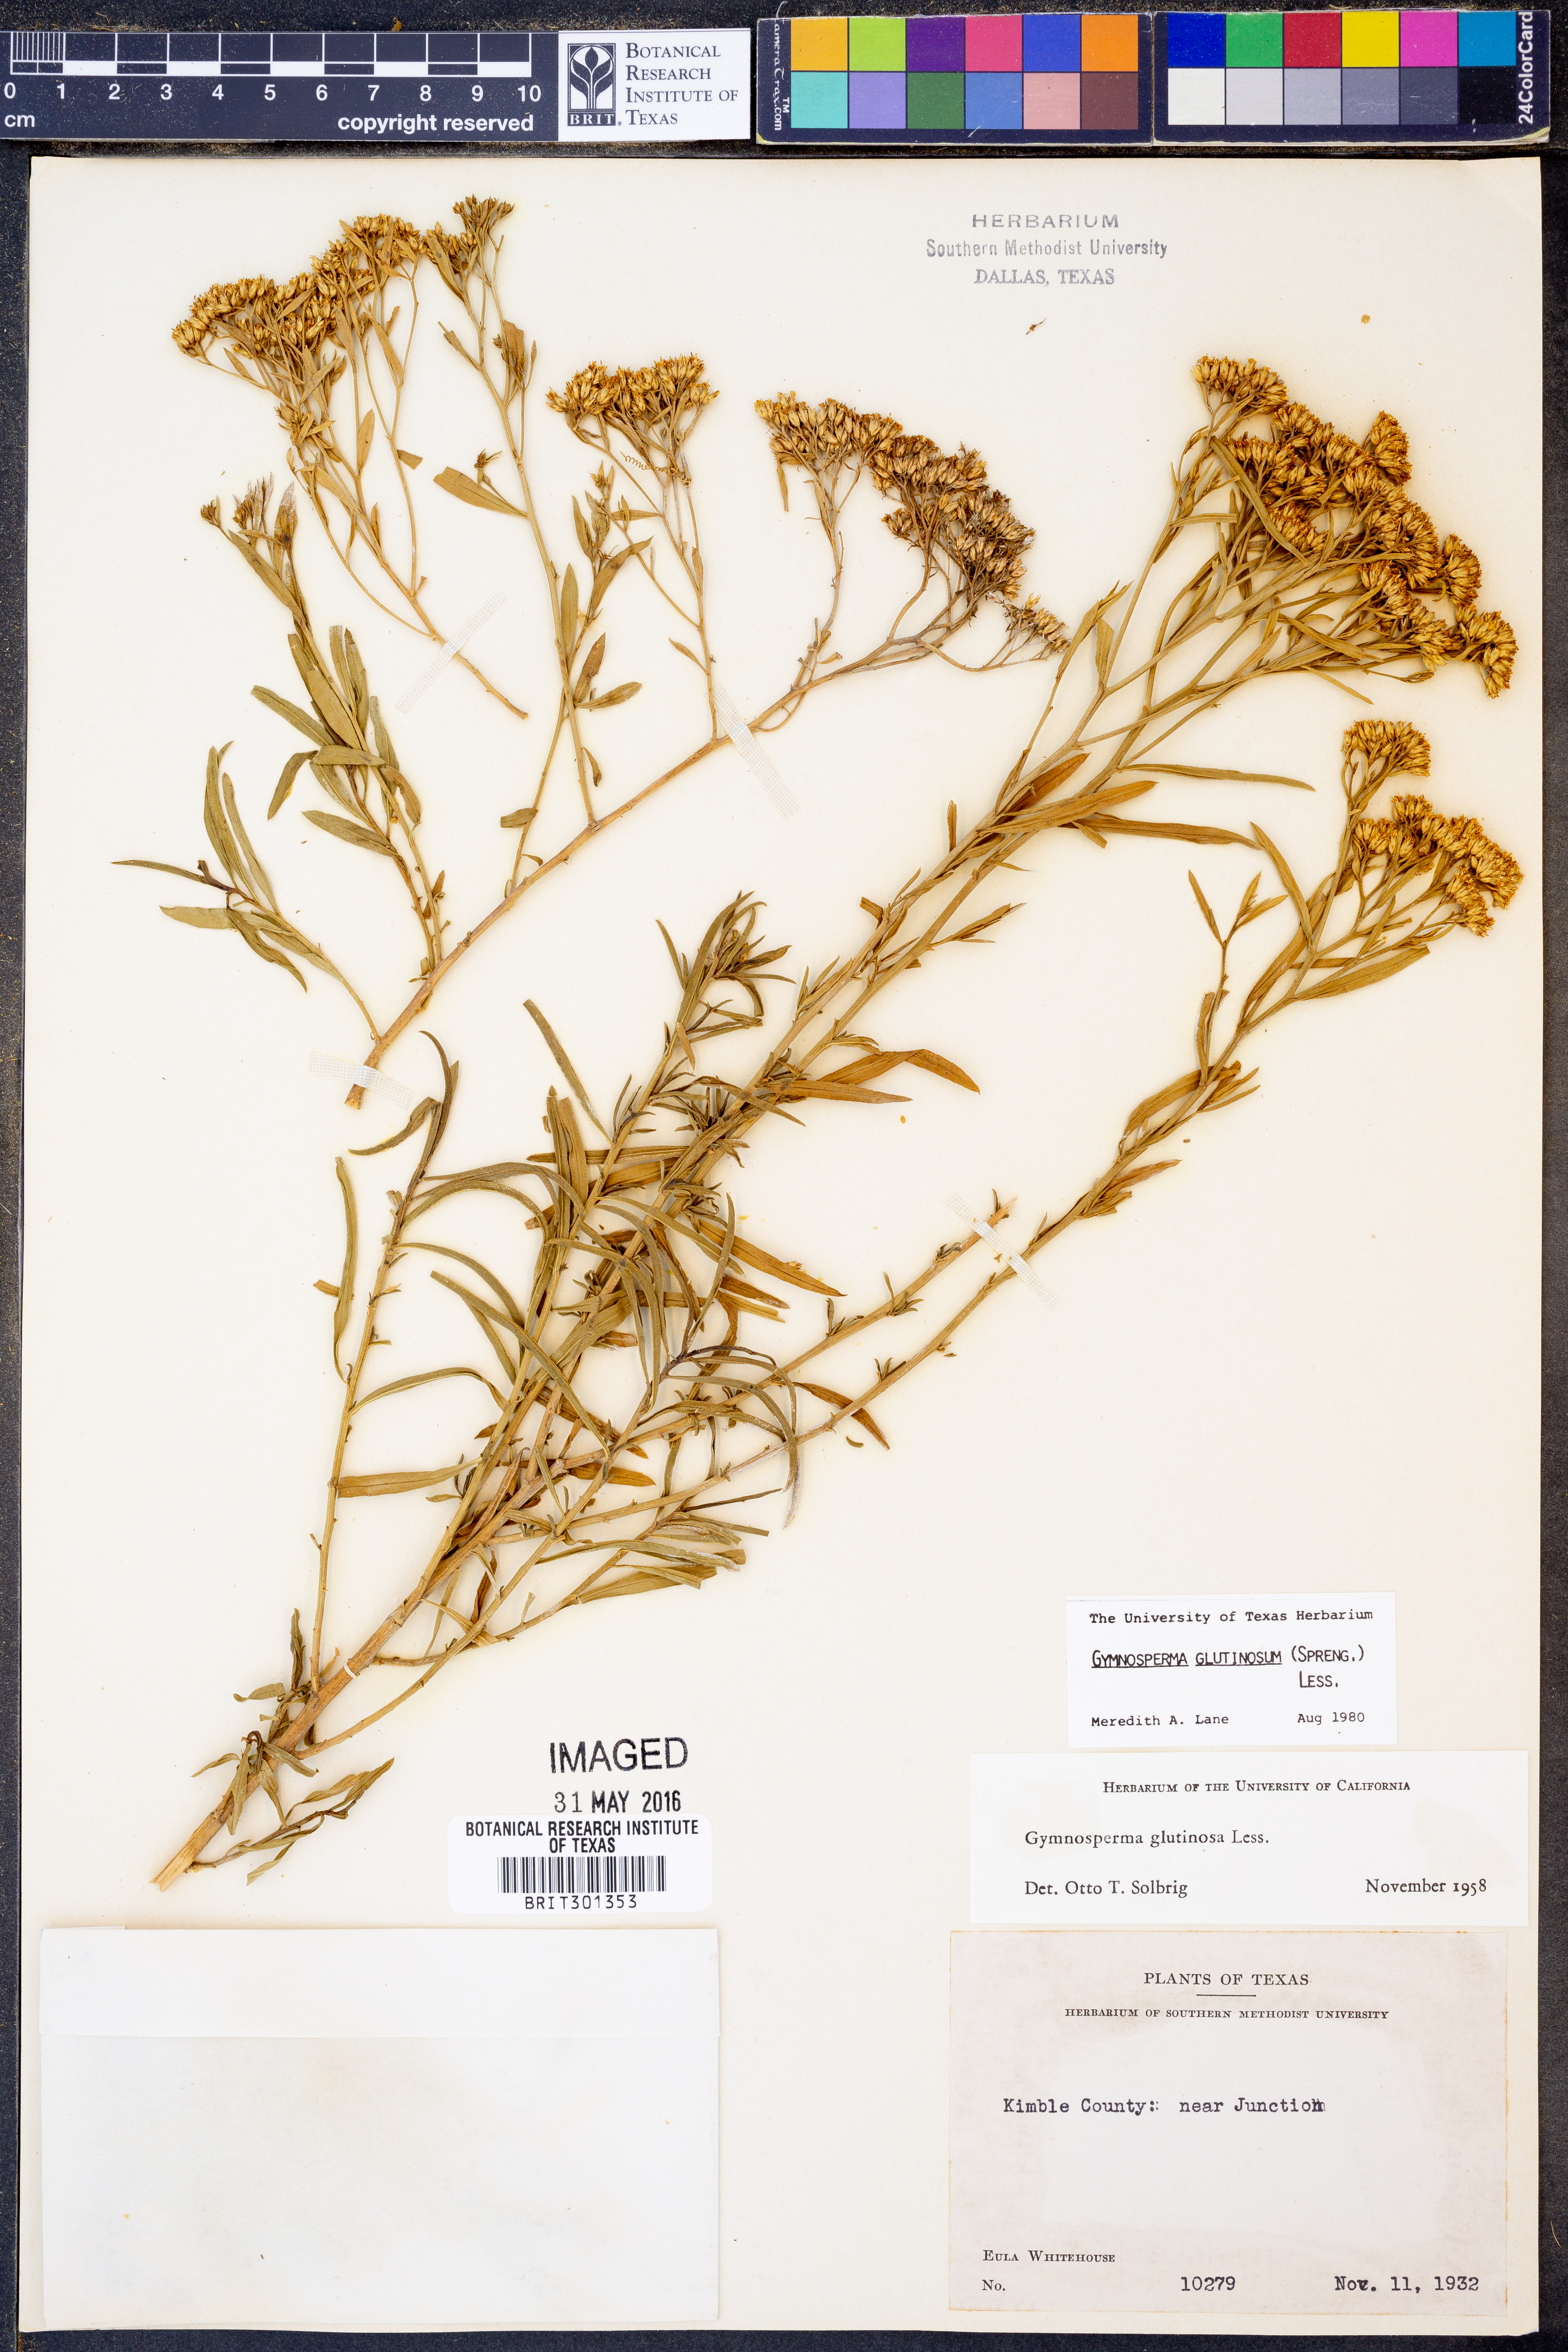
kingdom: Plantae
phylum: Tracheophyta
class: Magnoliopsida
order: Asterales
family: Asteraceae
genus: Gymnosperma
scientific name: Gymnosperma glutinosum
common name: Gumhead
